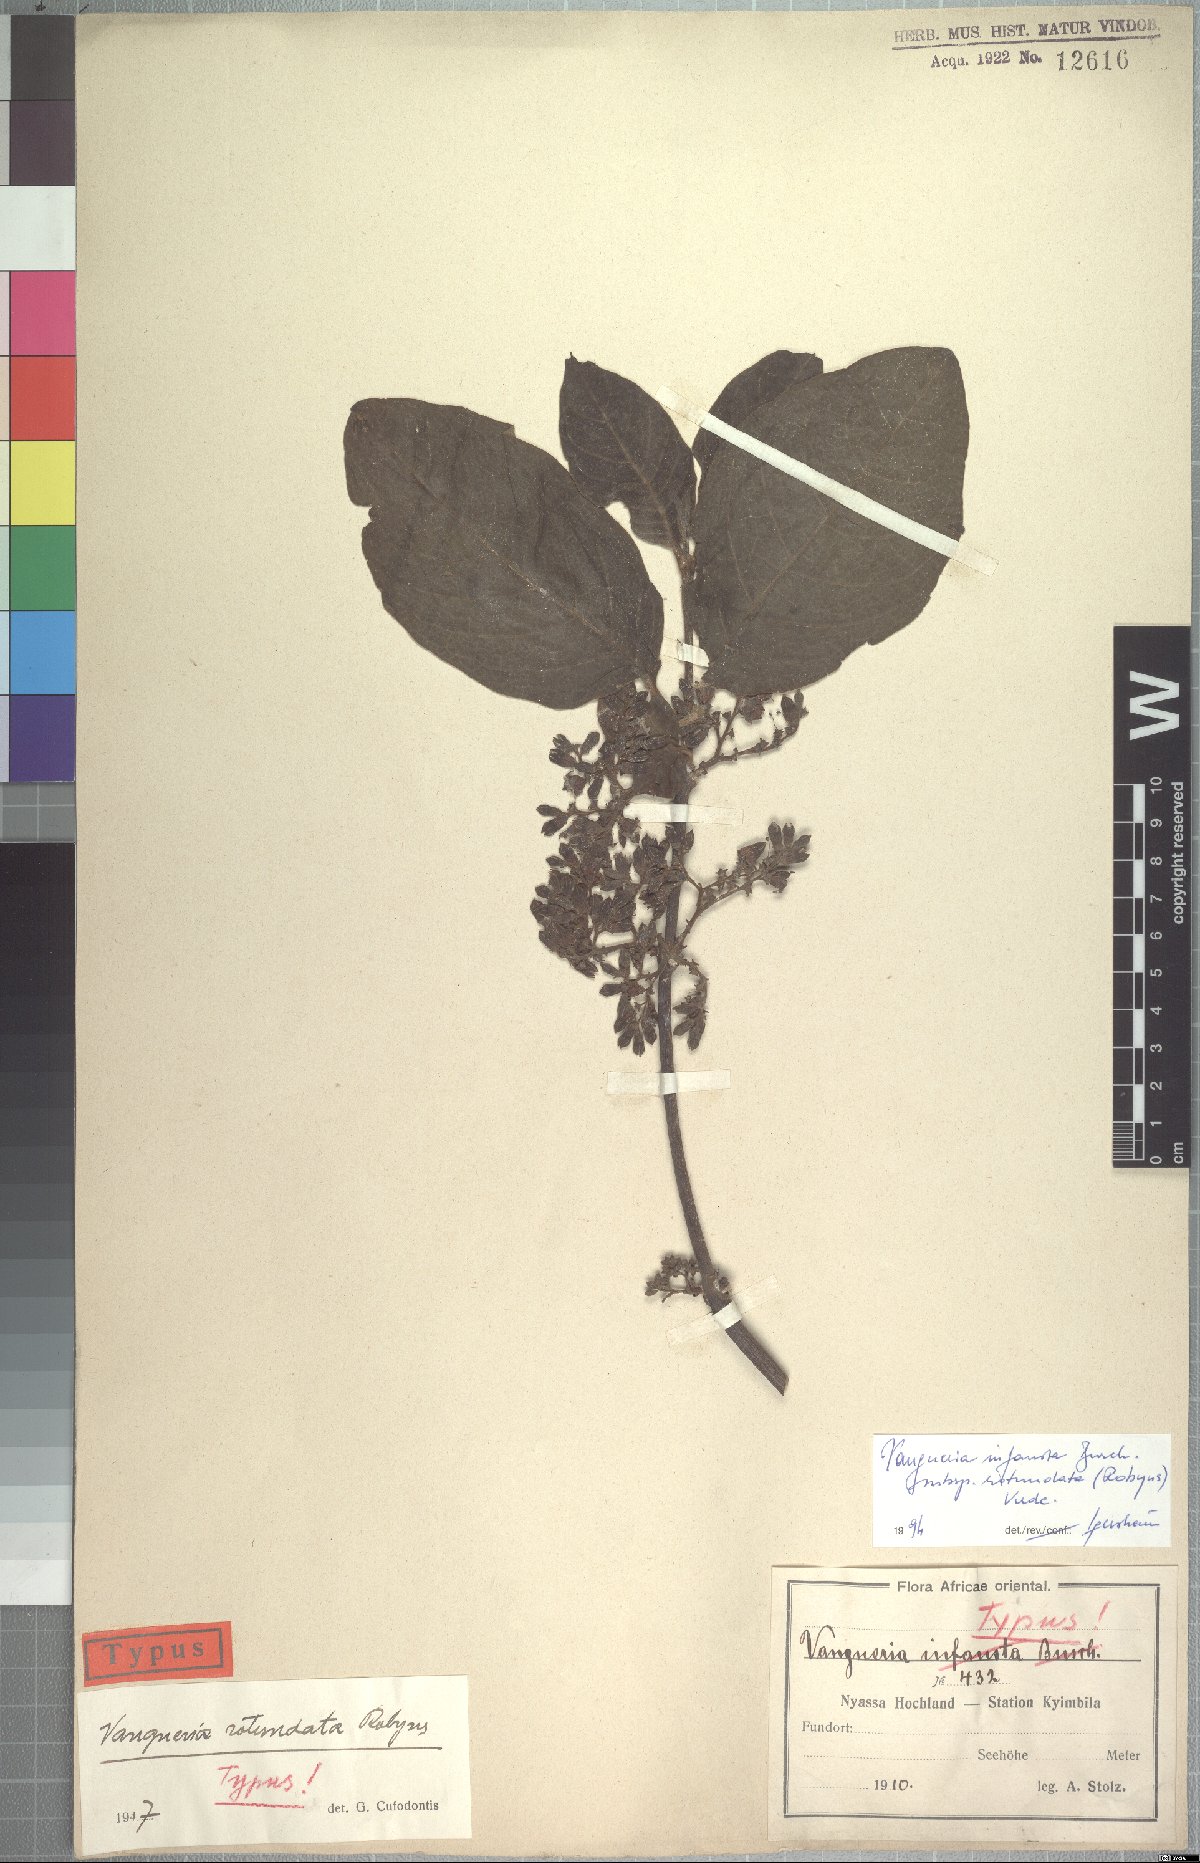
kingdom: Plantae
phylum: Tracheophyta
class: Magnoliopsida
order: Gentianales
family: Rubiaceae
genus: Vangueria
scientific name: Vangueria infausta
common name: Medlar
